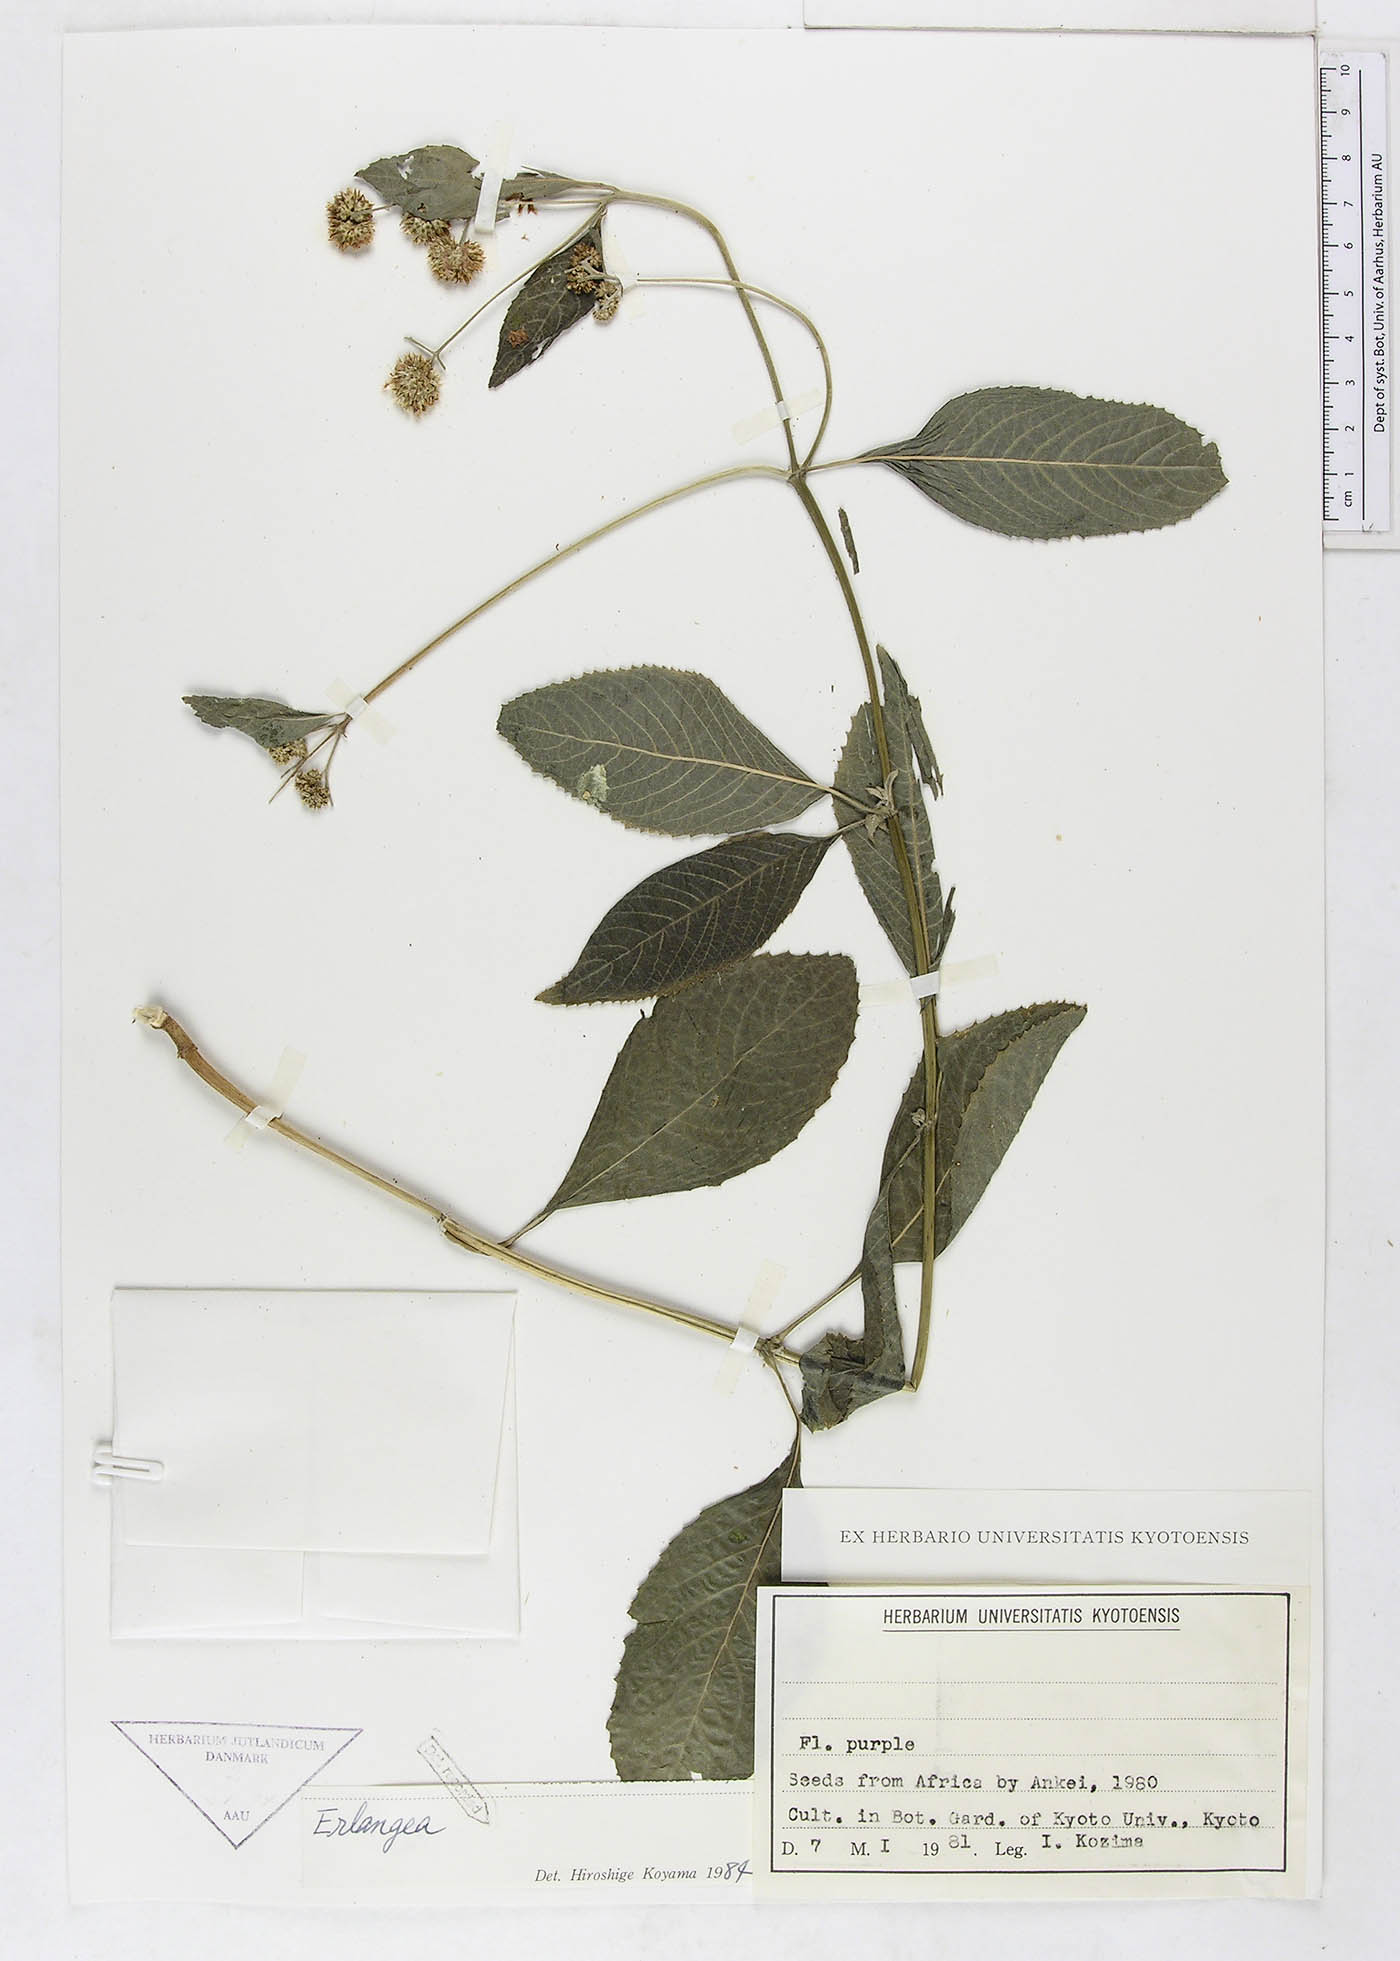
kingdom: Plantae
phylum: Tracheophyta
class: Magnoliopsida
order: Asterales
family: Asteraceae
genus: Erlangea
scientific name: Erlangea
